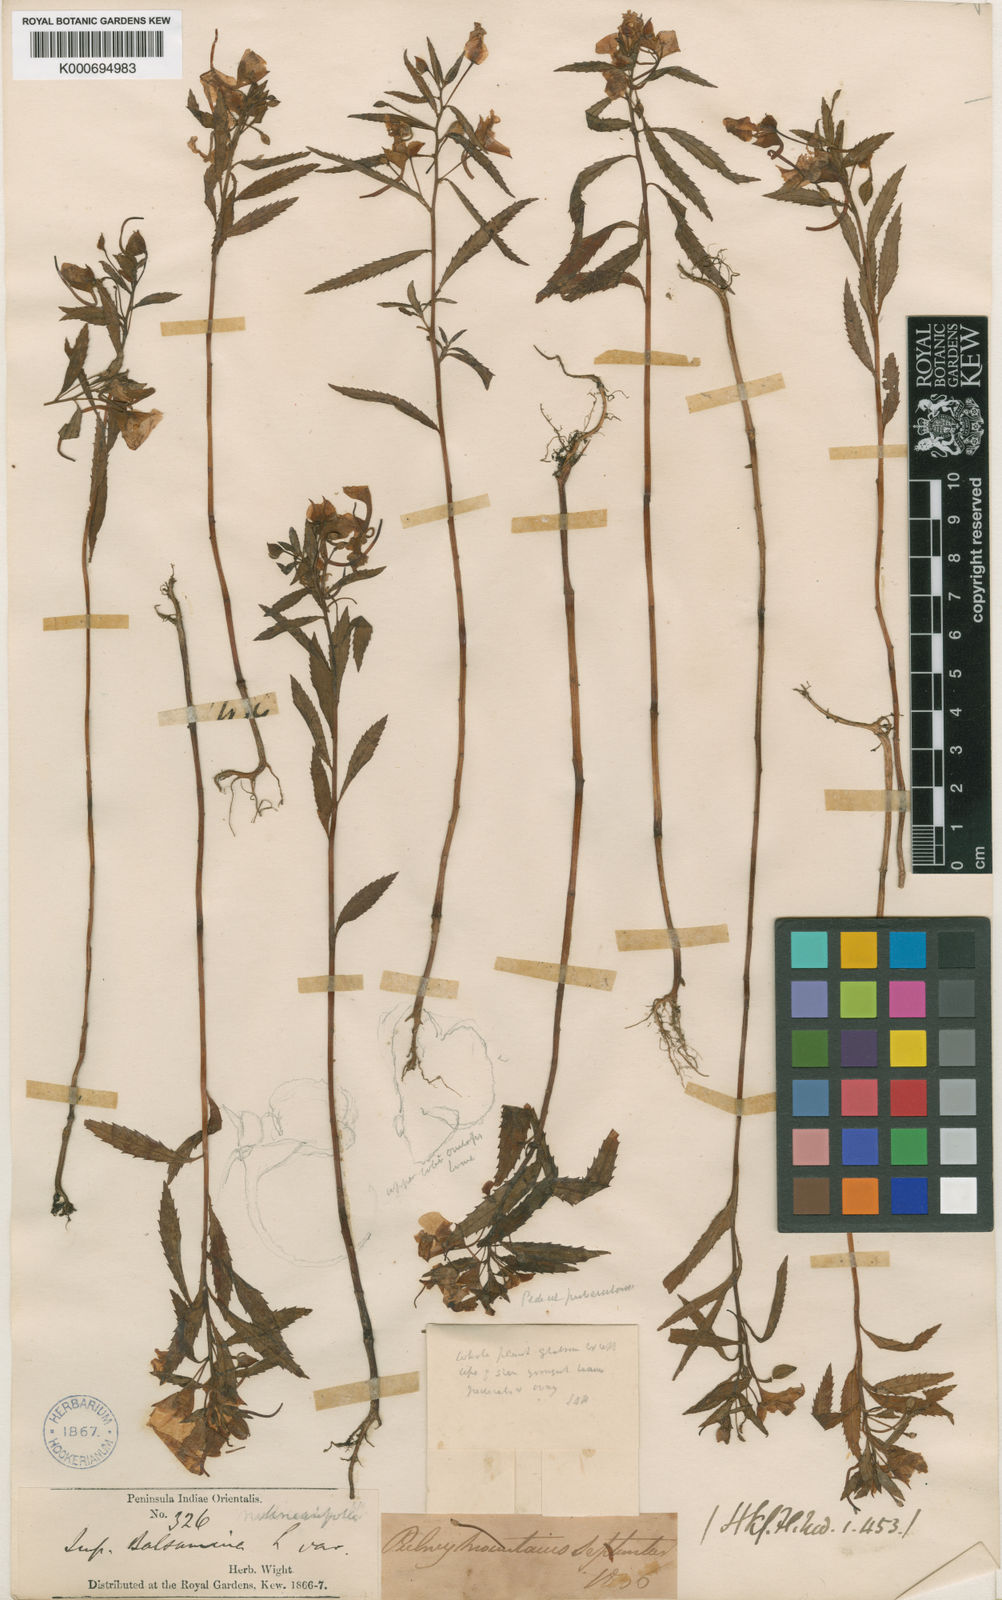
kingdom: Plantae
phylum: Tracheophyta
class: Magnoliopsida
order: Ericales
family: Balsaminaceae
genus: Impatiens
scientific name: Impatiens balsamina
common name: Balsam
